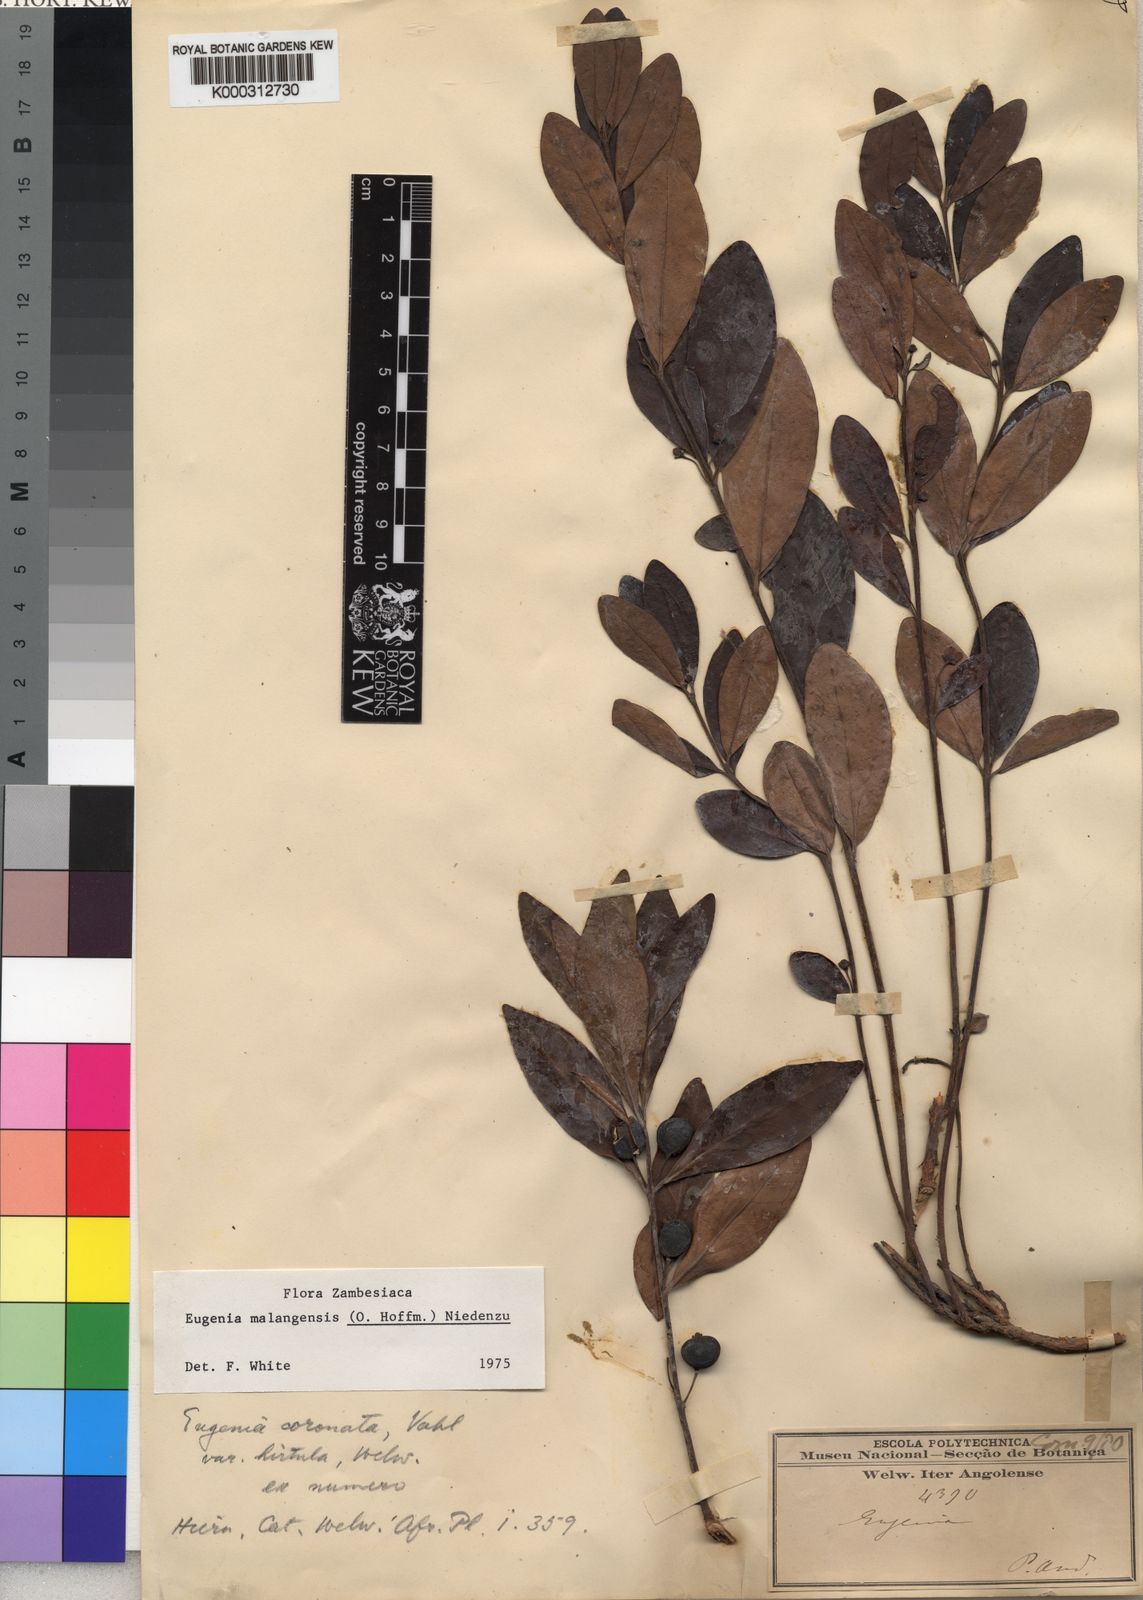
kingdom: Plantae
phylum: Tracheophyta
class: Magnoliopsida
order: Myrtales
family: Myrtaceae
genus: Eugenia
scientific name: Eugenia malangensis
